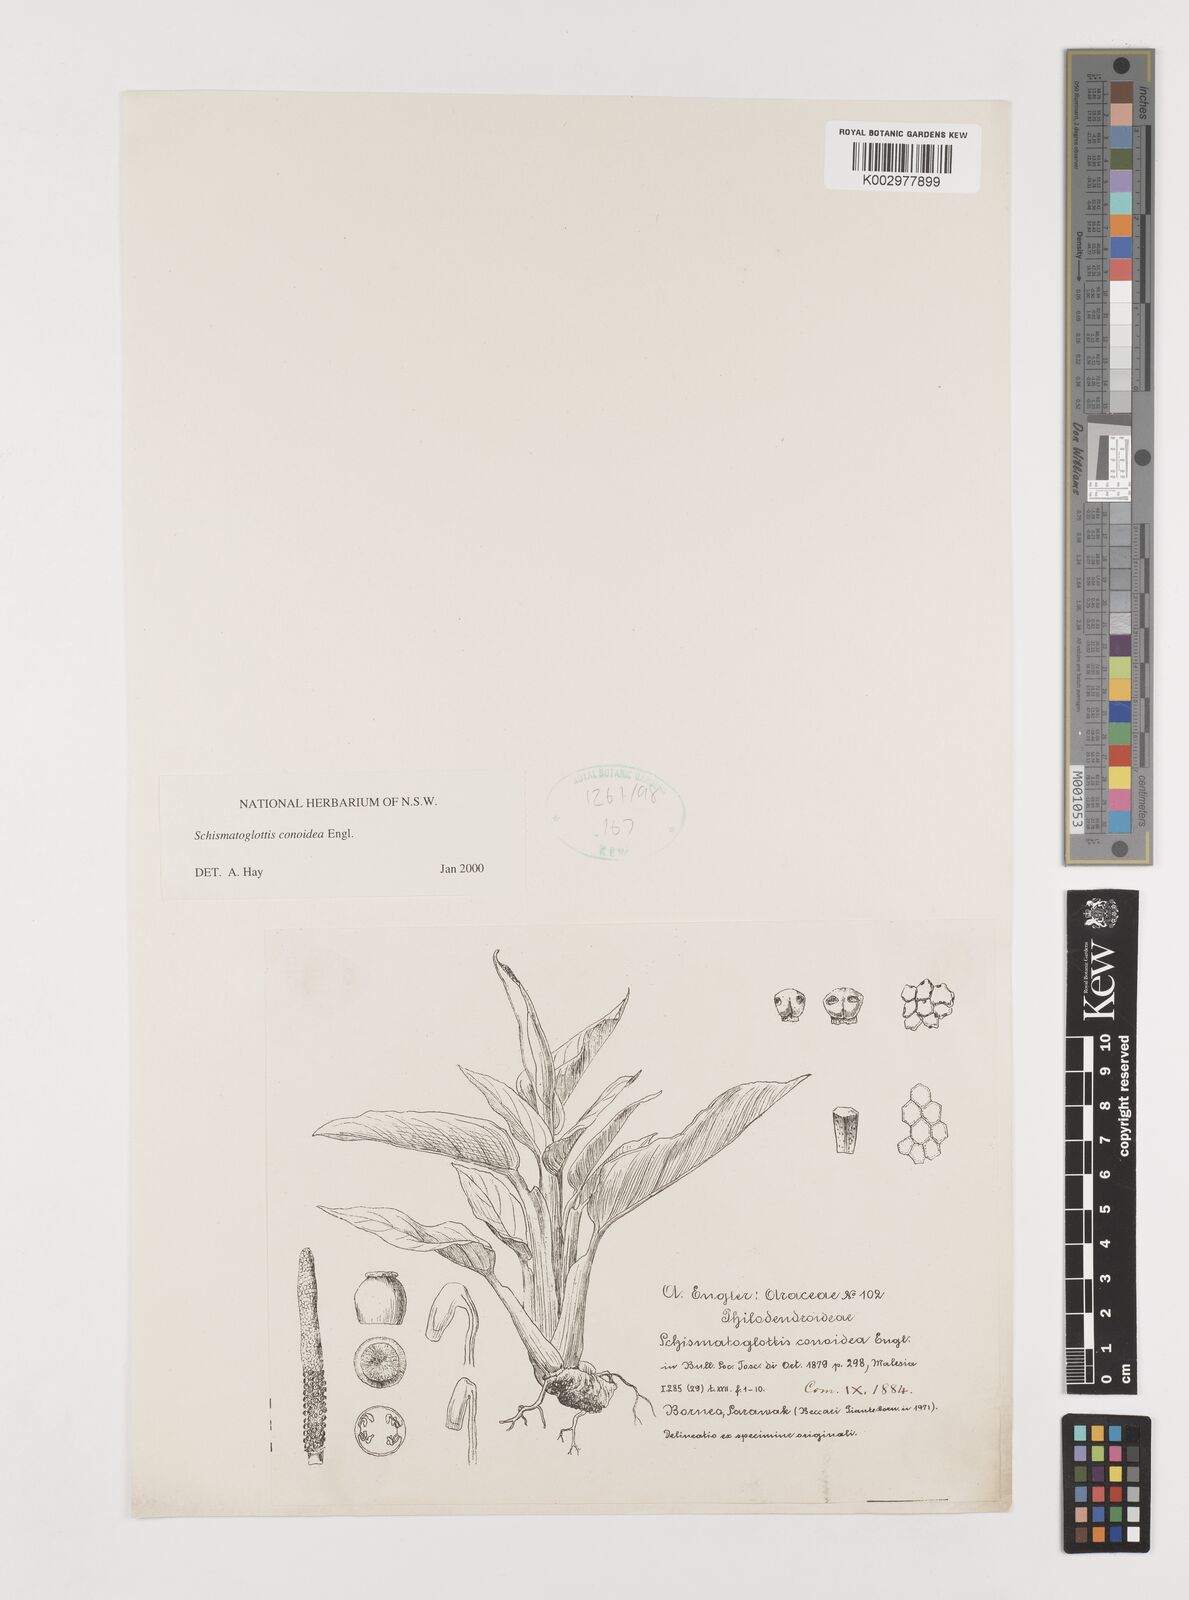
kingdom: Plantae
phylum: Tracheophyta
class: Liliopsida
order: Alismatales
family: Araceae
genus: Schismatoglottis
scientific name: Schismatoglottis conoidea
